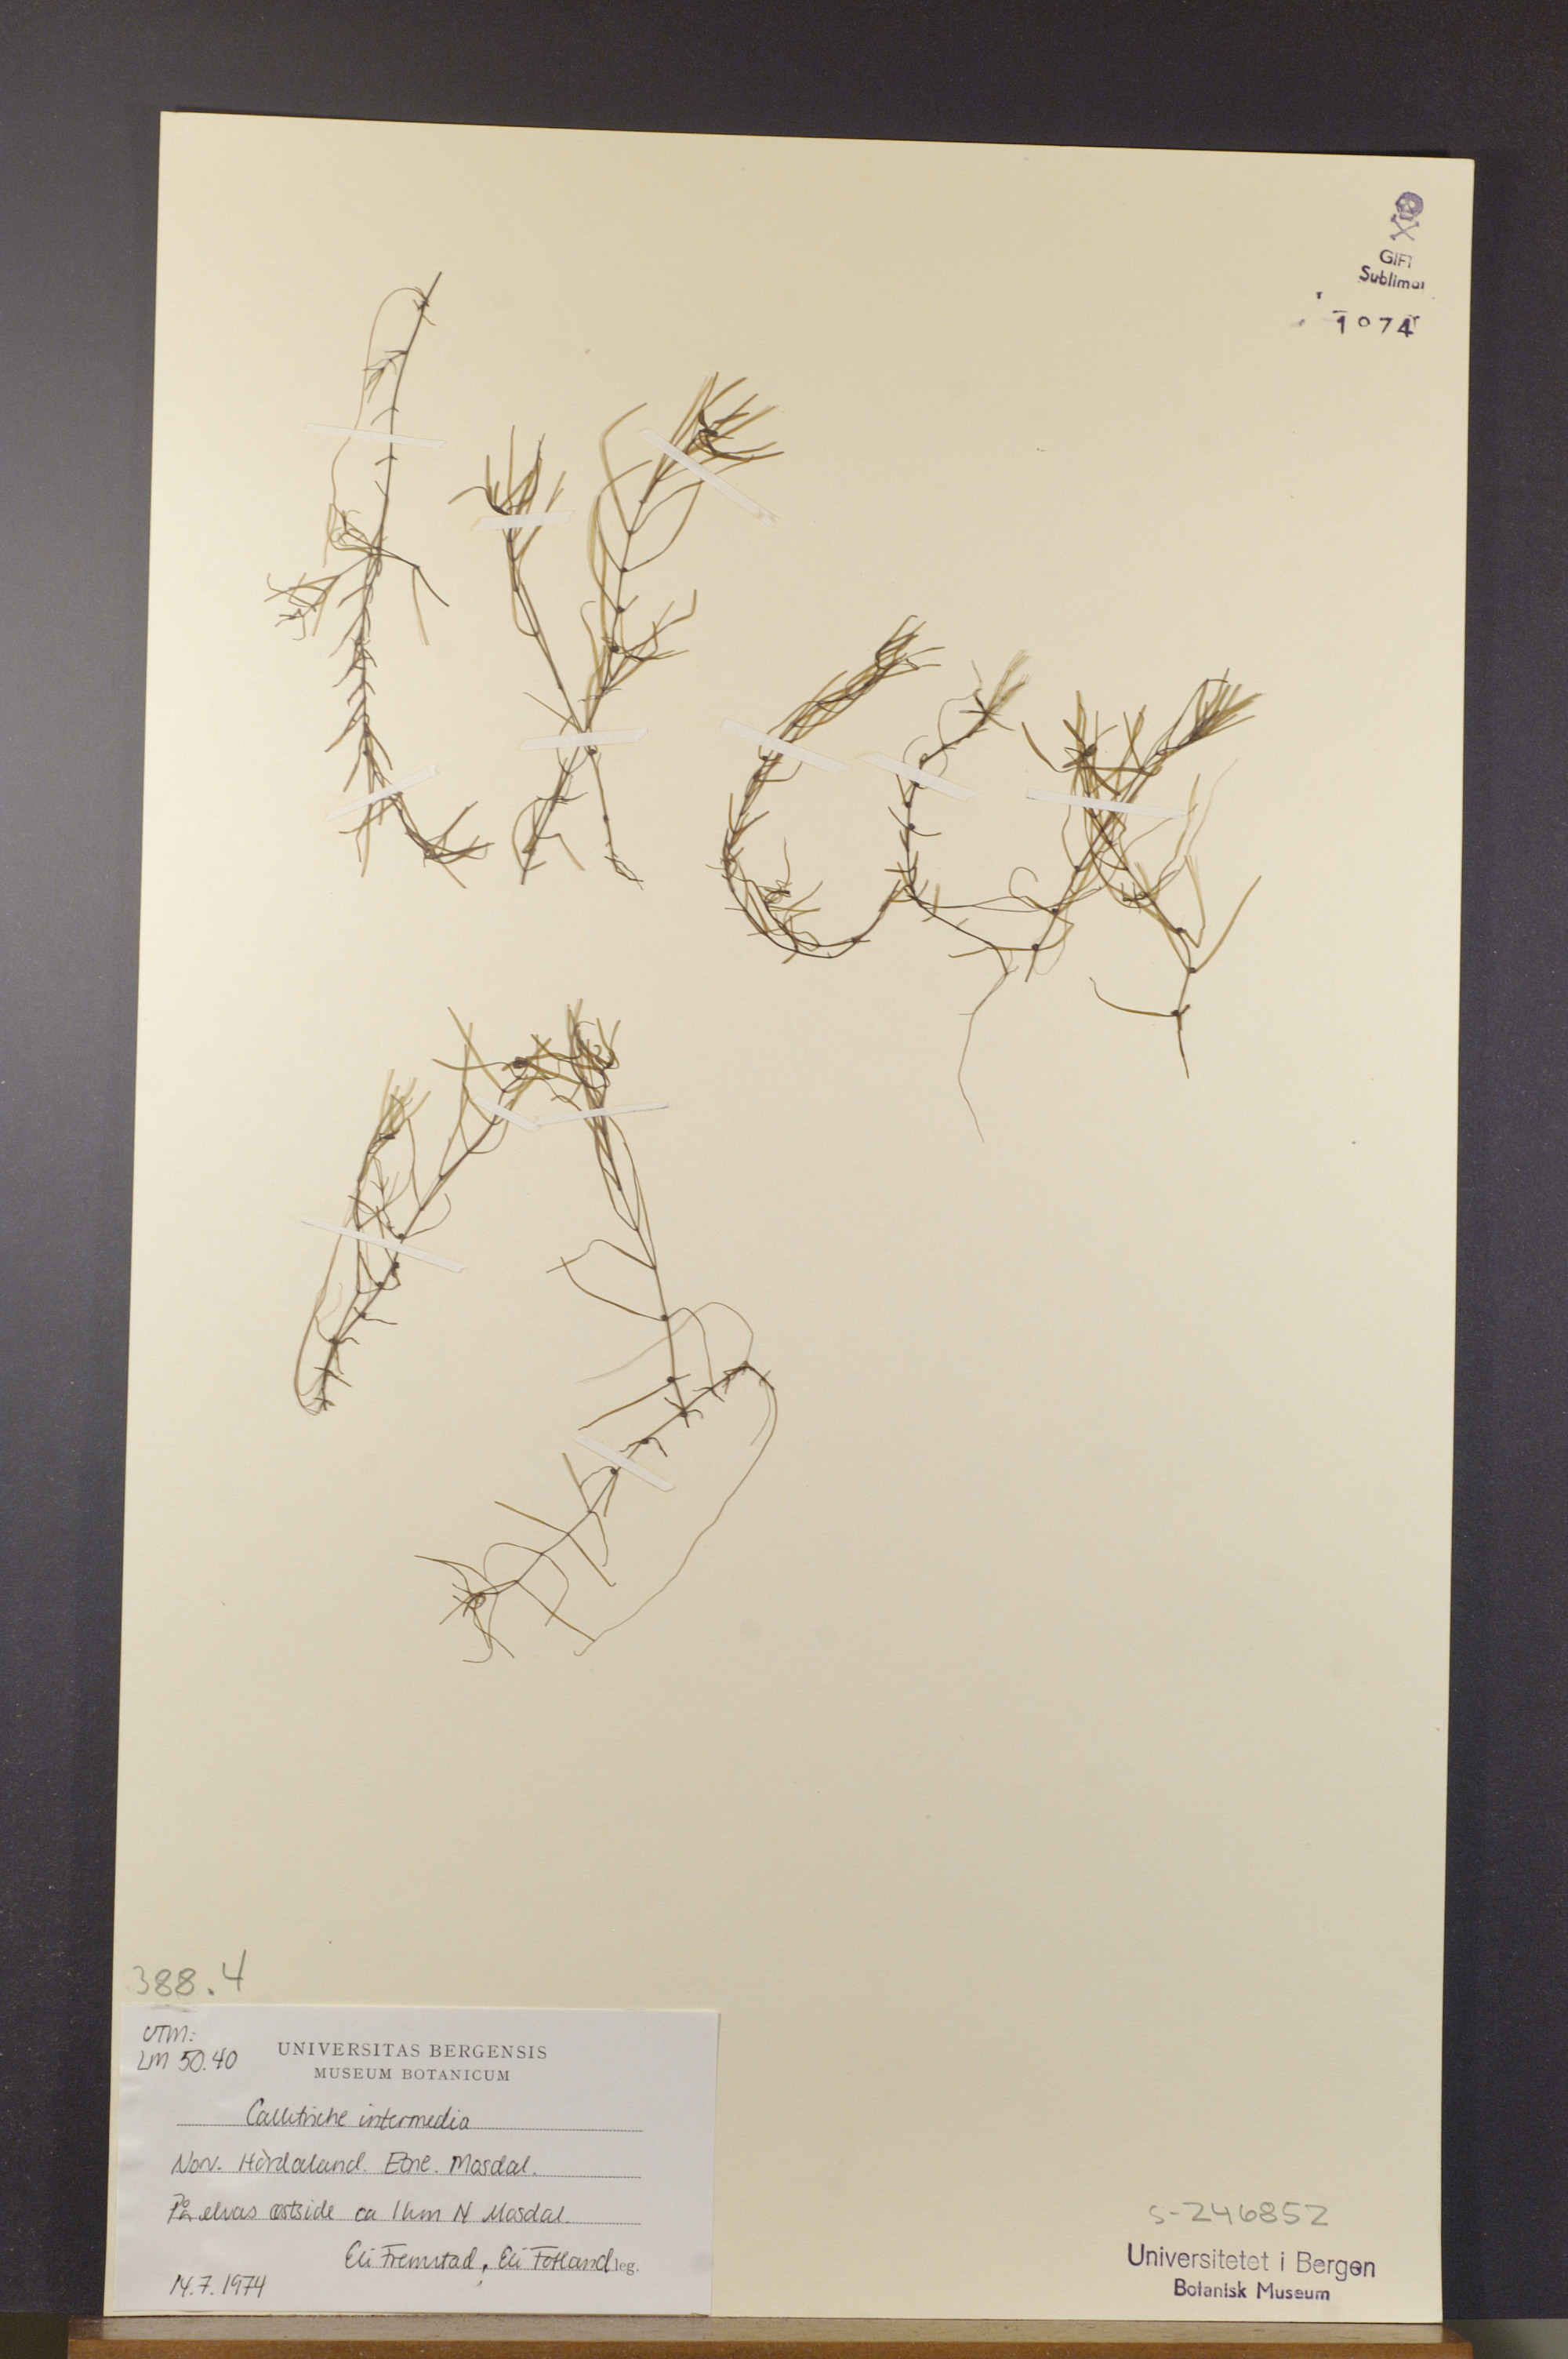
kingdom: Plantae
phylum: Tracheophyta
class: Magnoliopsida
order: Lamiales
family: Plantaginaceae
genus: Callitriche
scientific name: Callitriche hamulata
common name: Intermediate water-starwort
